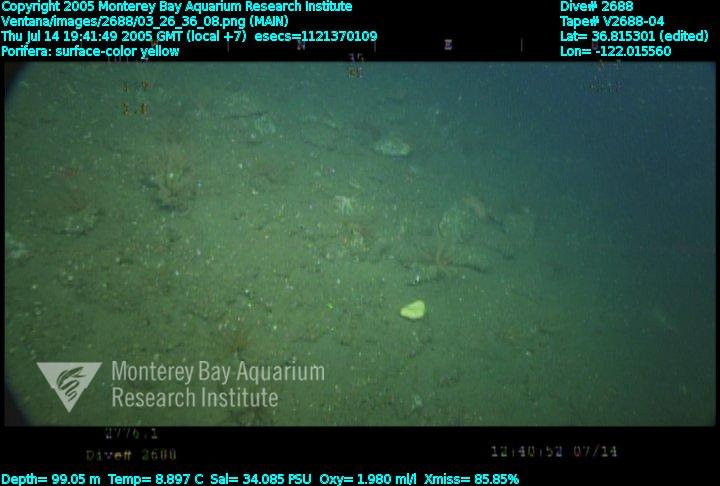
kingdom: Animalia
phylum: Porifera
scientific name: Porifera
